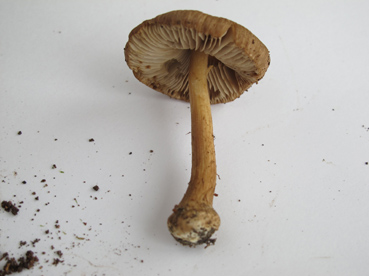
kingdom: Fungi
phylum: Basidiomycota
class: Agaricomycetes
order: Agaricales
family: Inocybaceae
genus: Inocybe
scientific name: Inocybe napipes
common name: roeknoldet trævlhat
